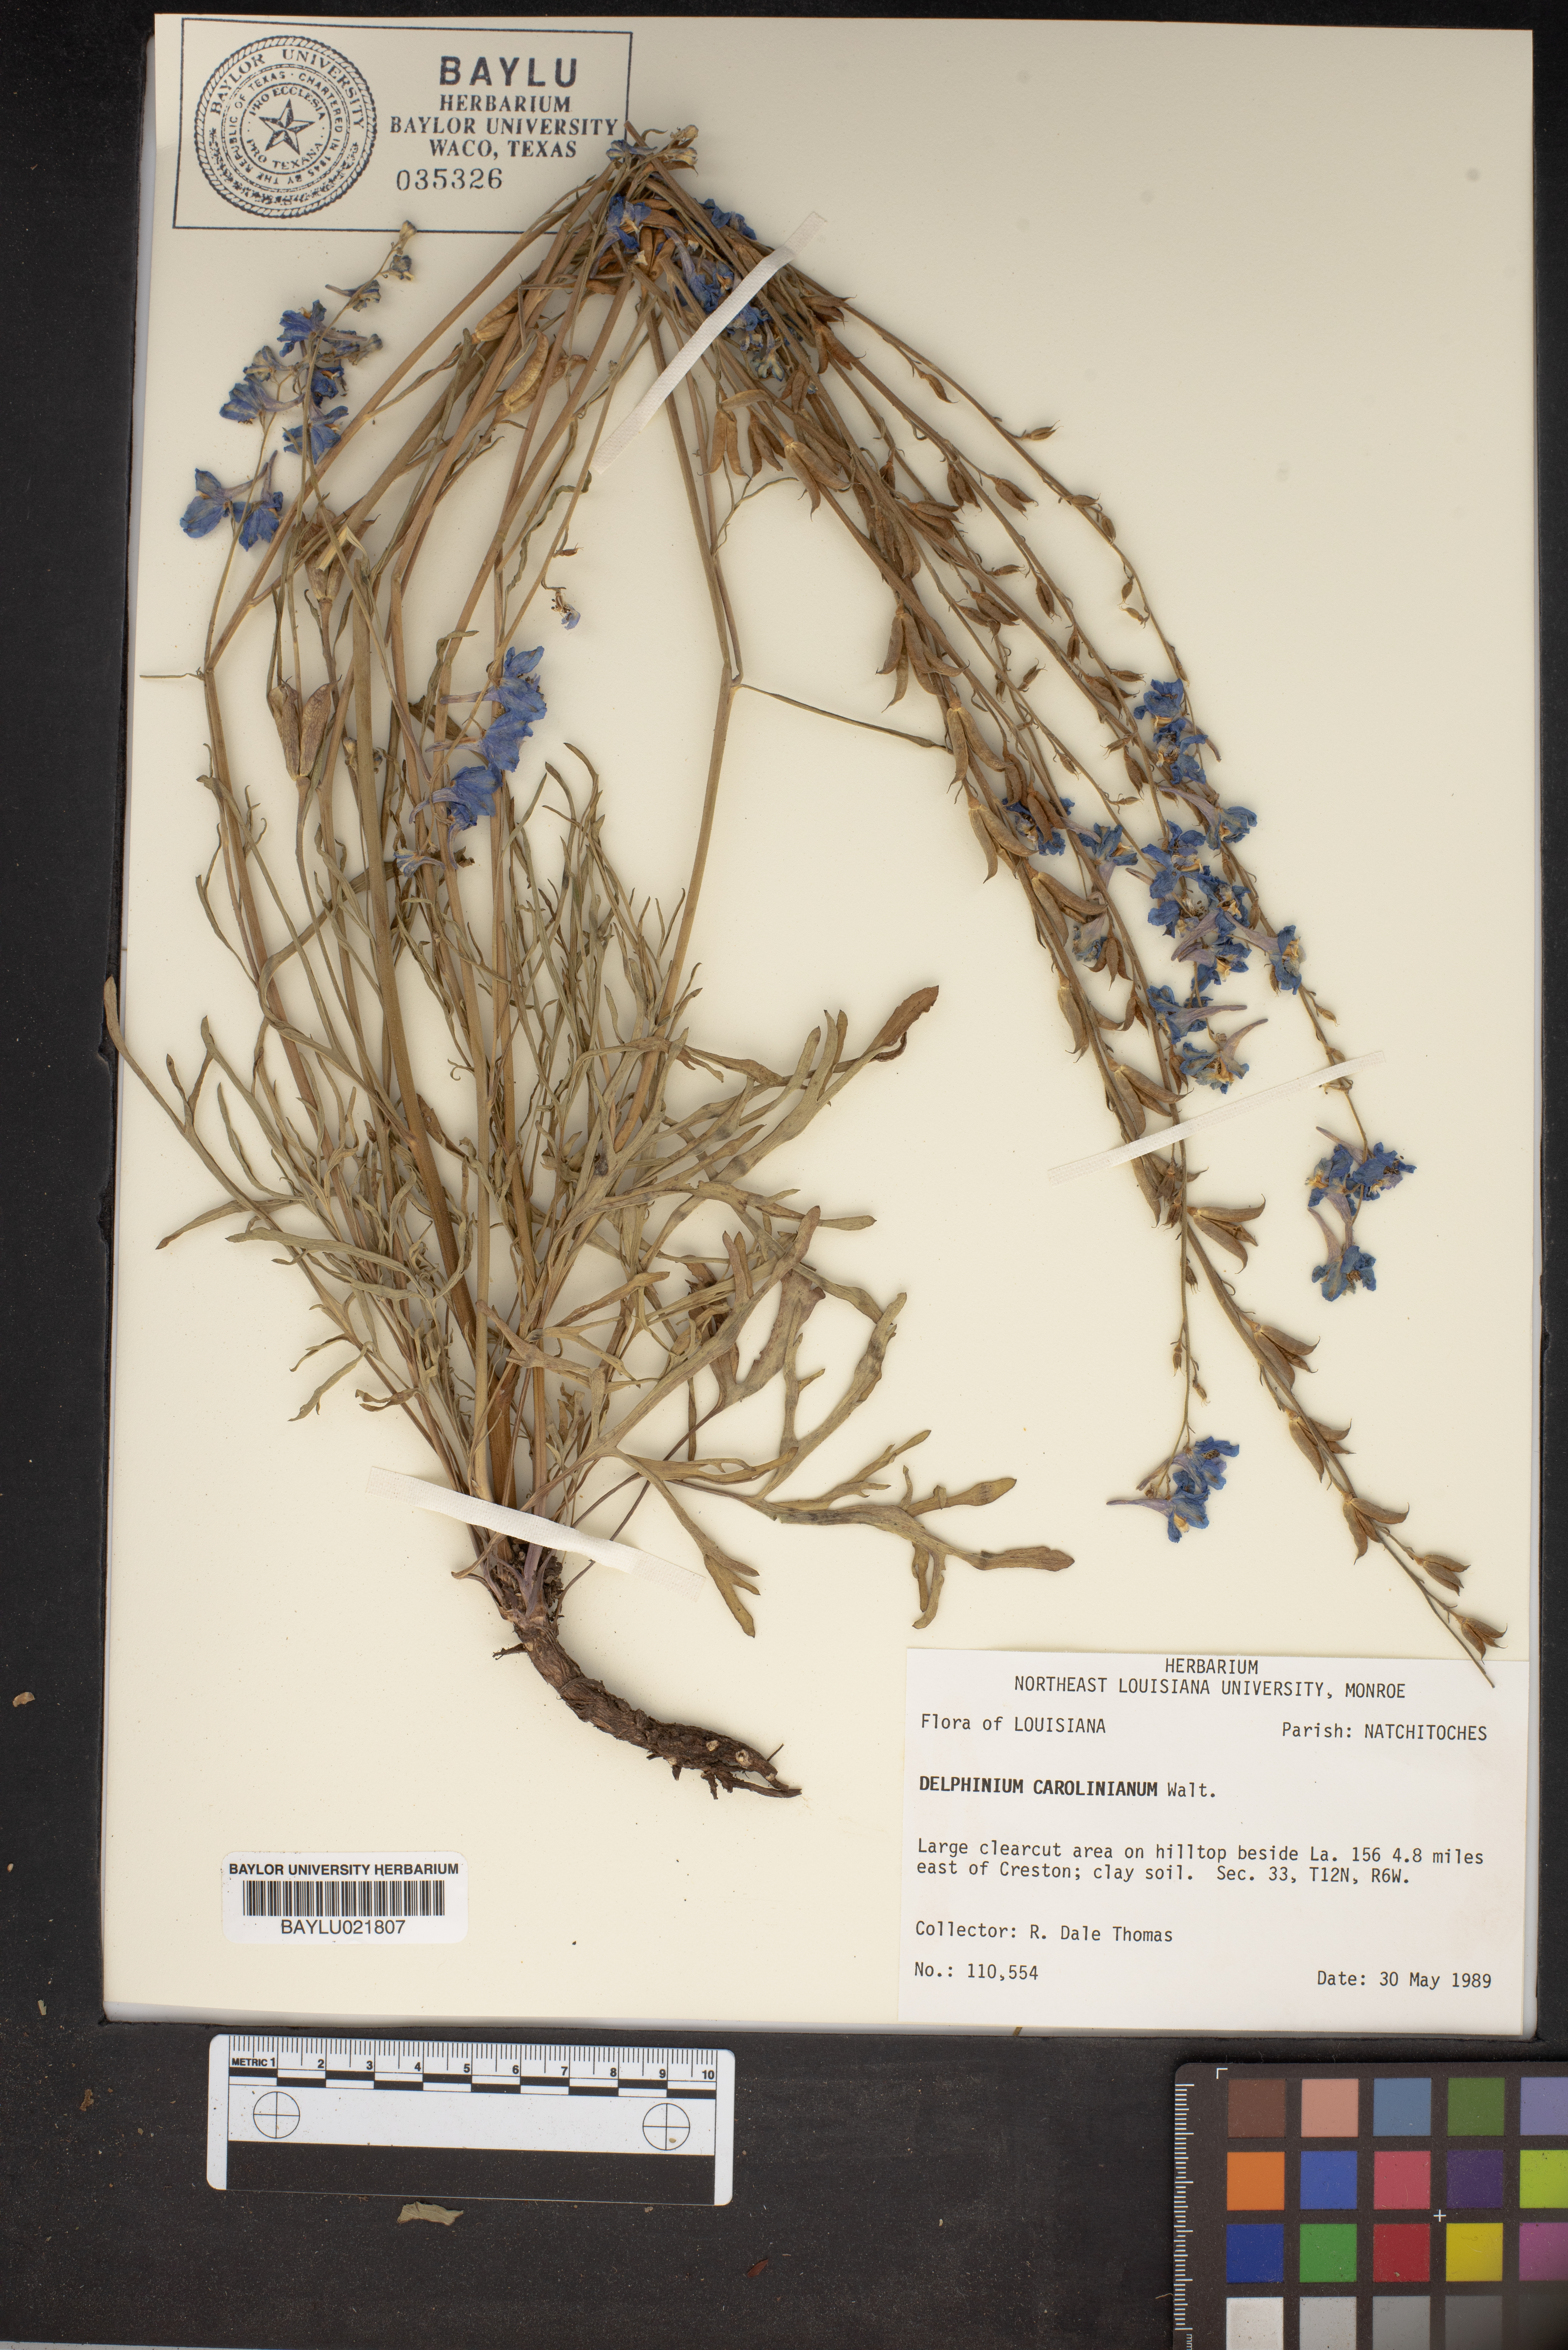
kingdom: Plantae
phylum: Tracheophyta
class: Magnoliopsida
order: Ranunculales
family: Ranunculaceae
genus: Delphinium
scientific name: Delphinium carolinianum
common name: Carolina larkspur
